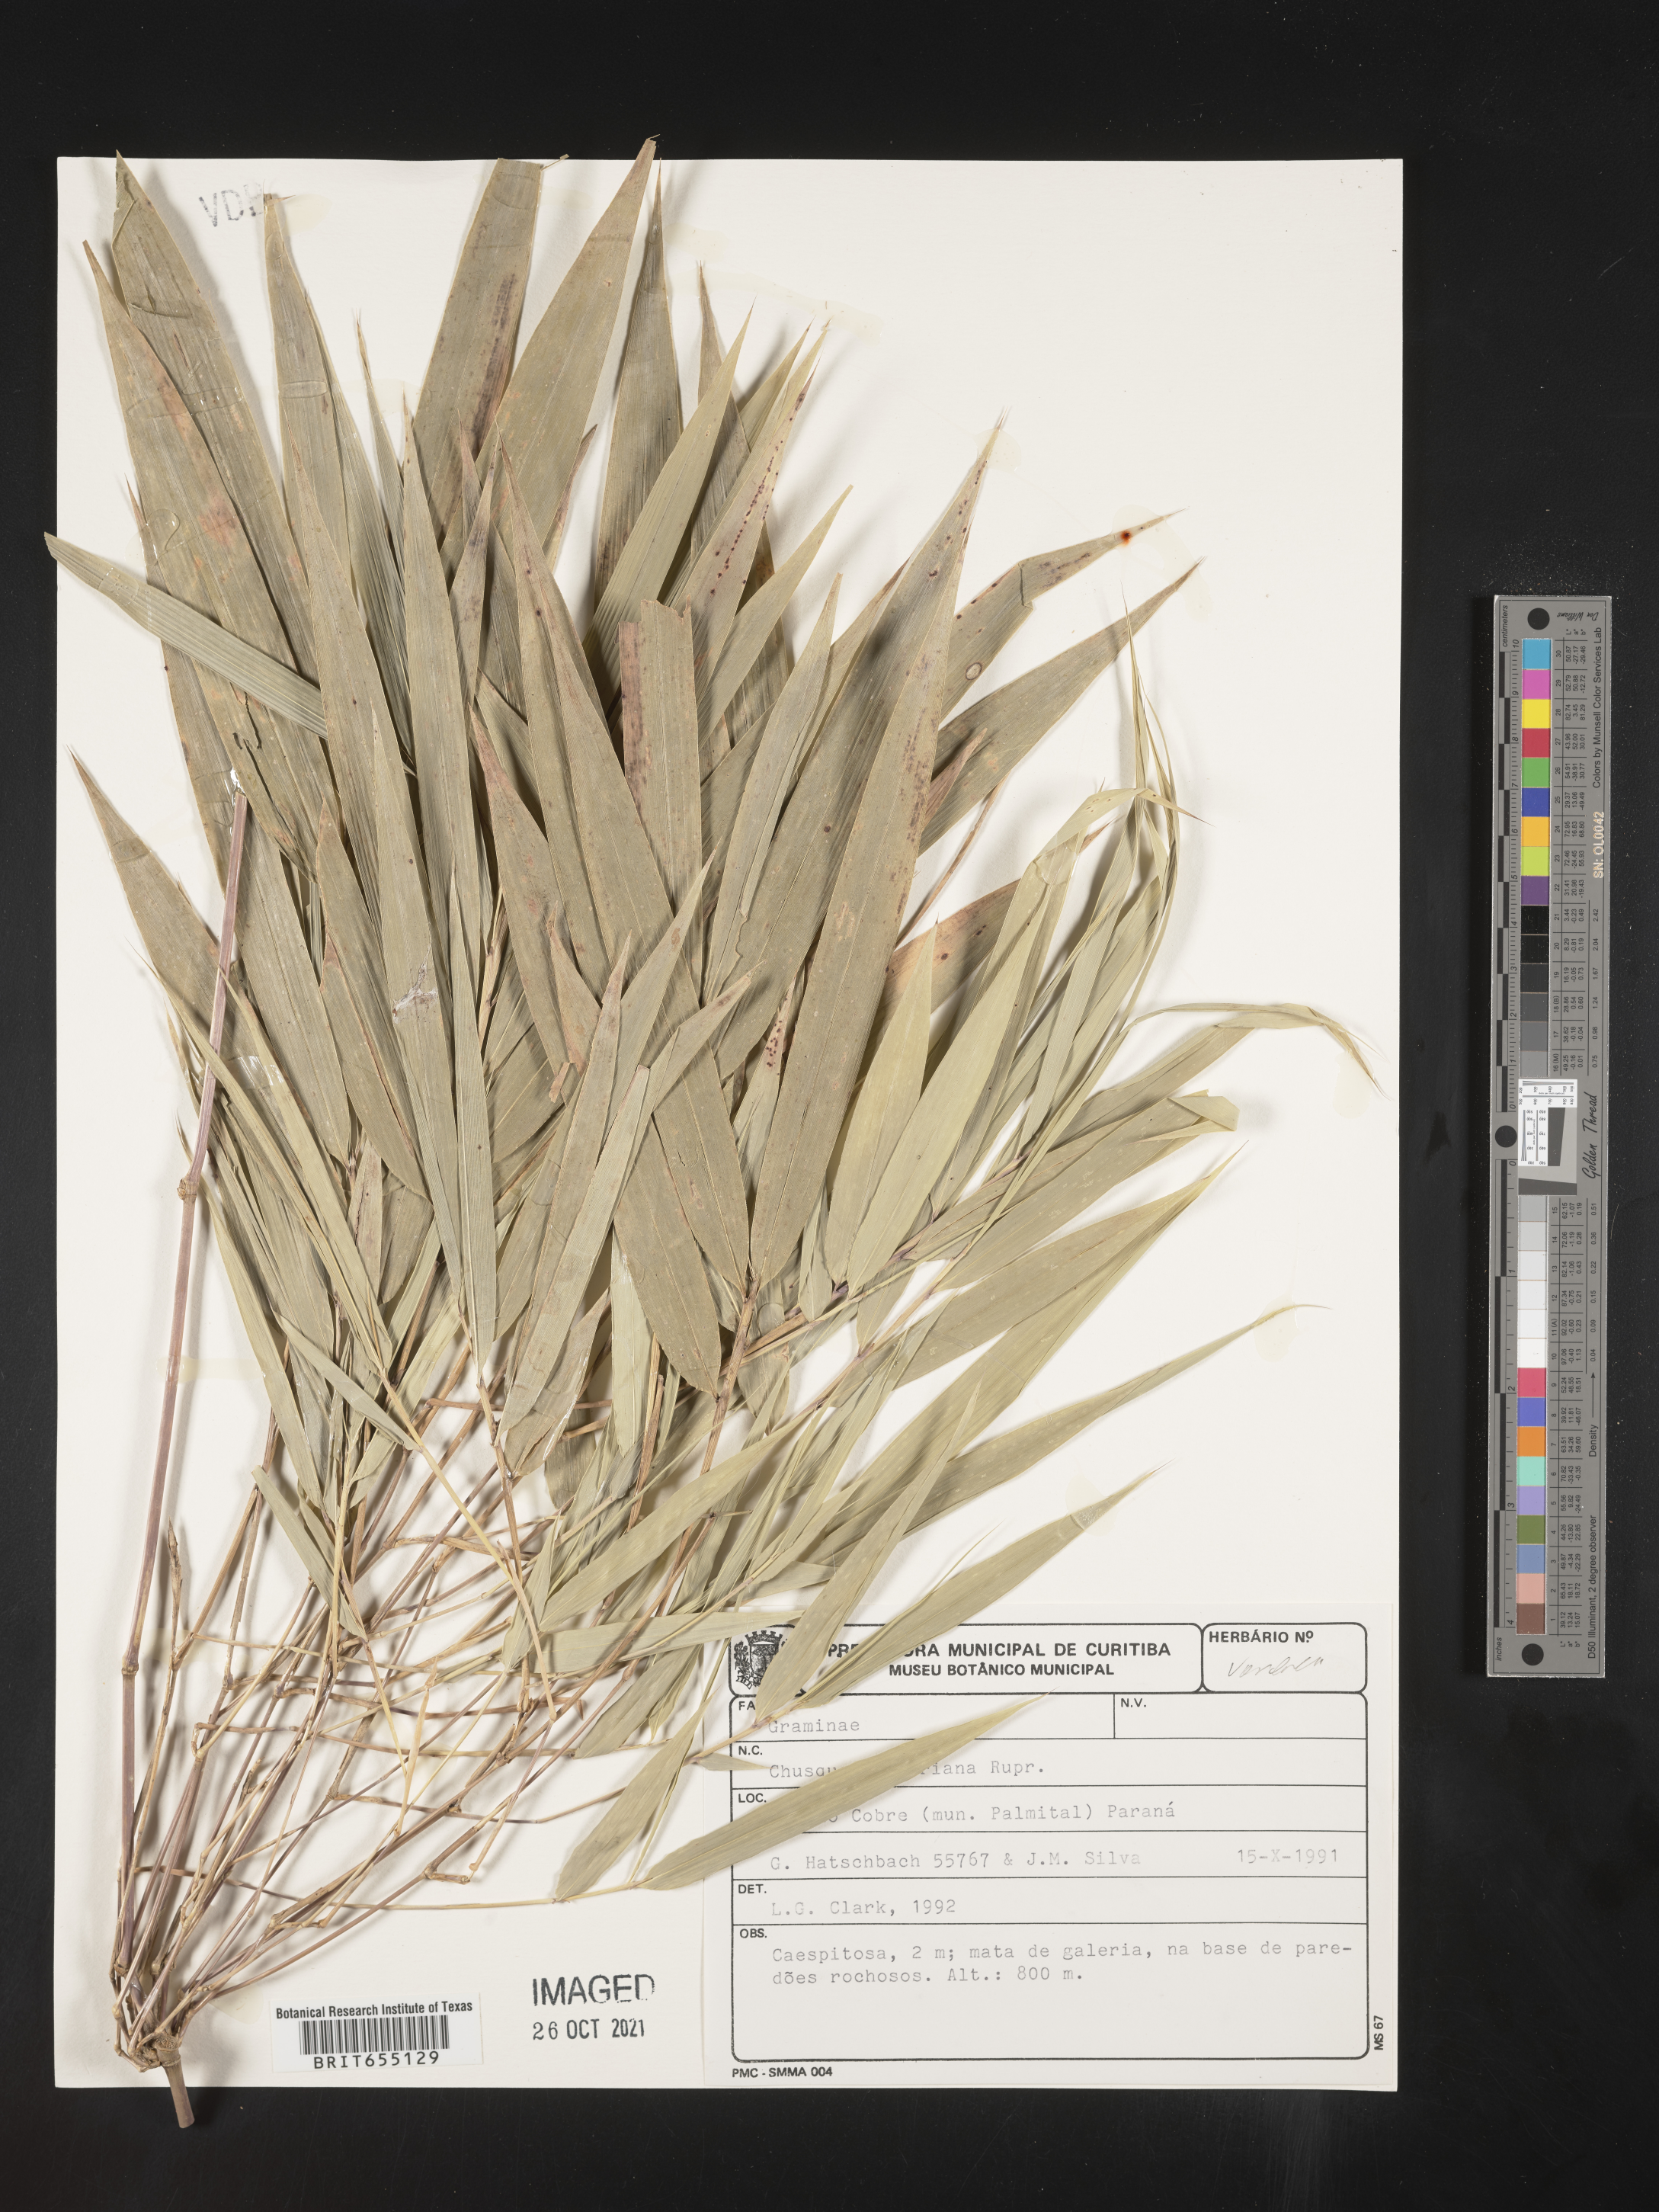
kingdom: Plantae
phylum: Tracheophyta
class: Liliopsida
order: Poales
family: Poaceae
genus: Chusquea
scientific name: Chusquea
